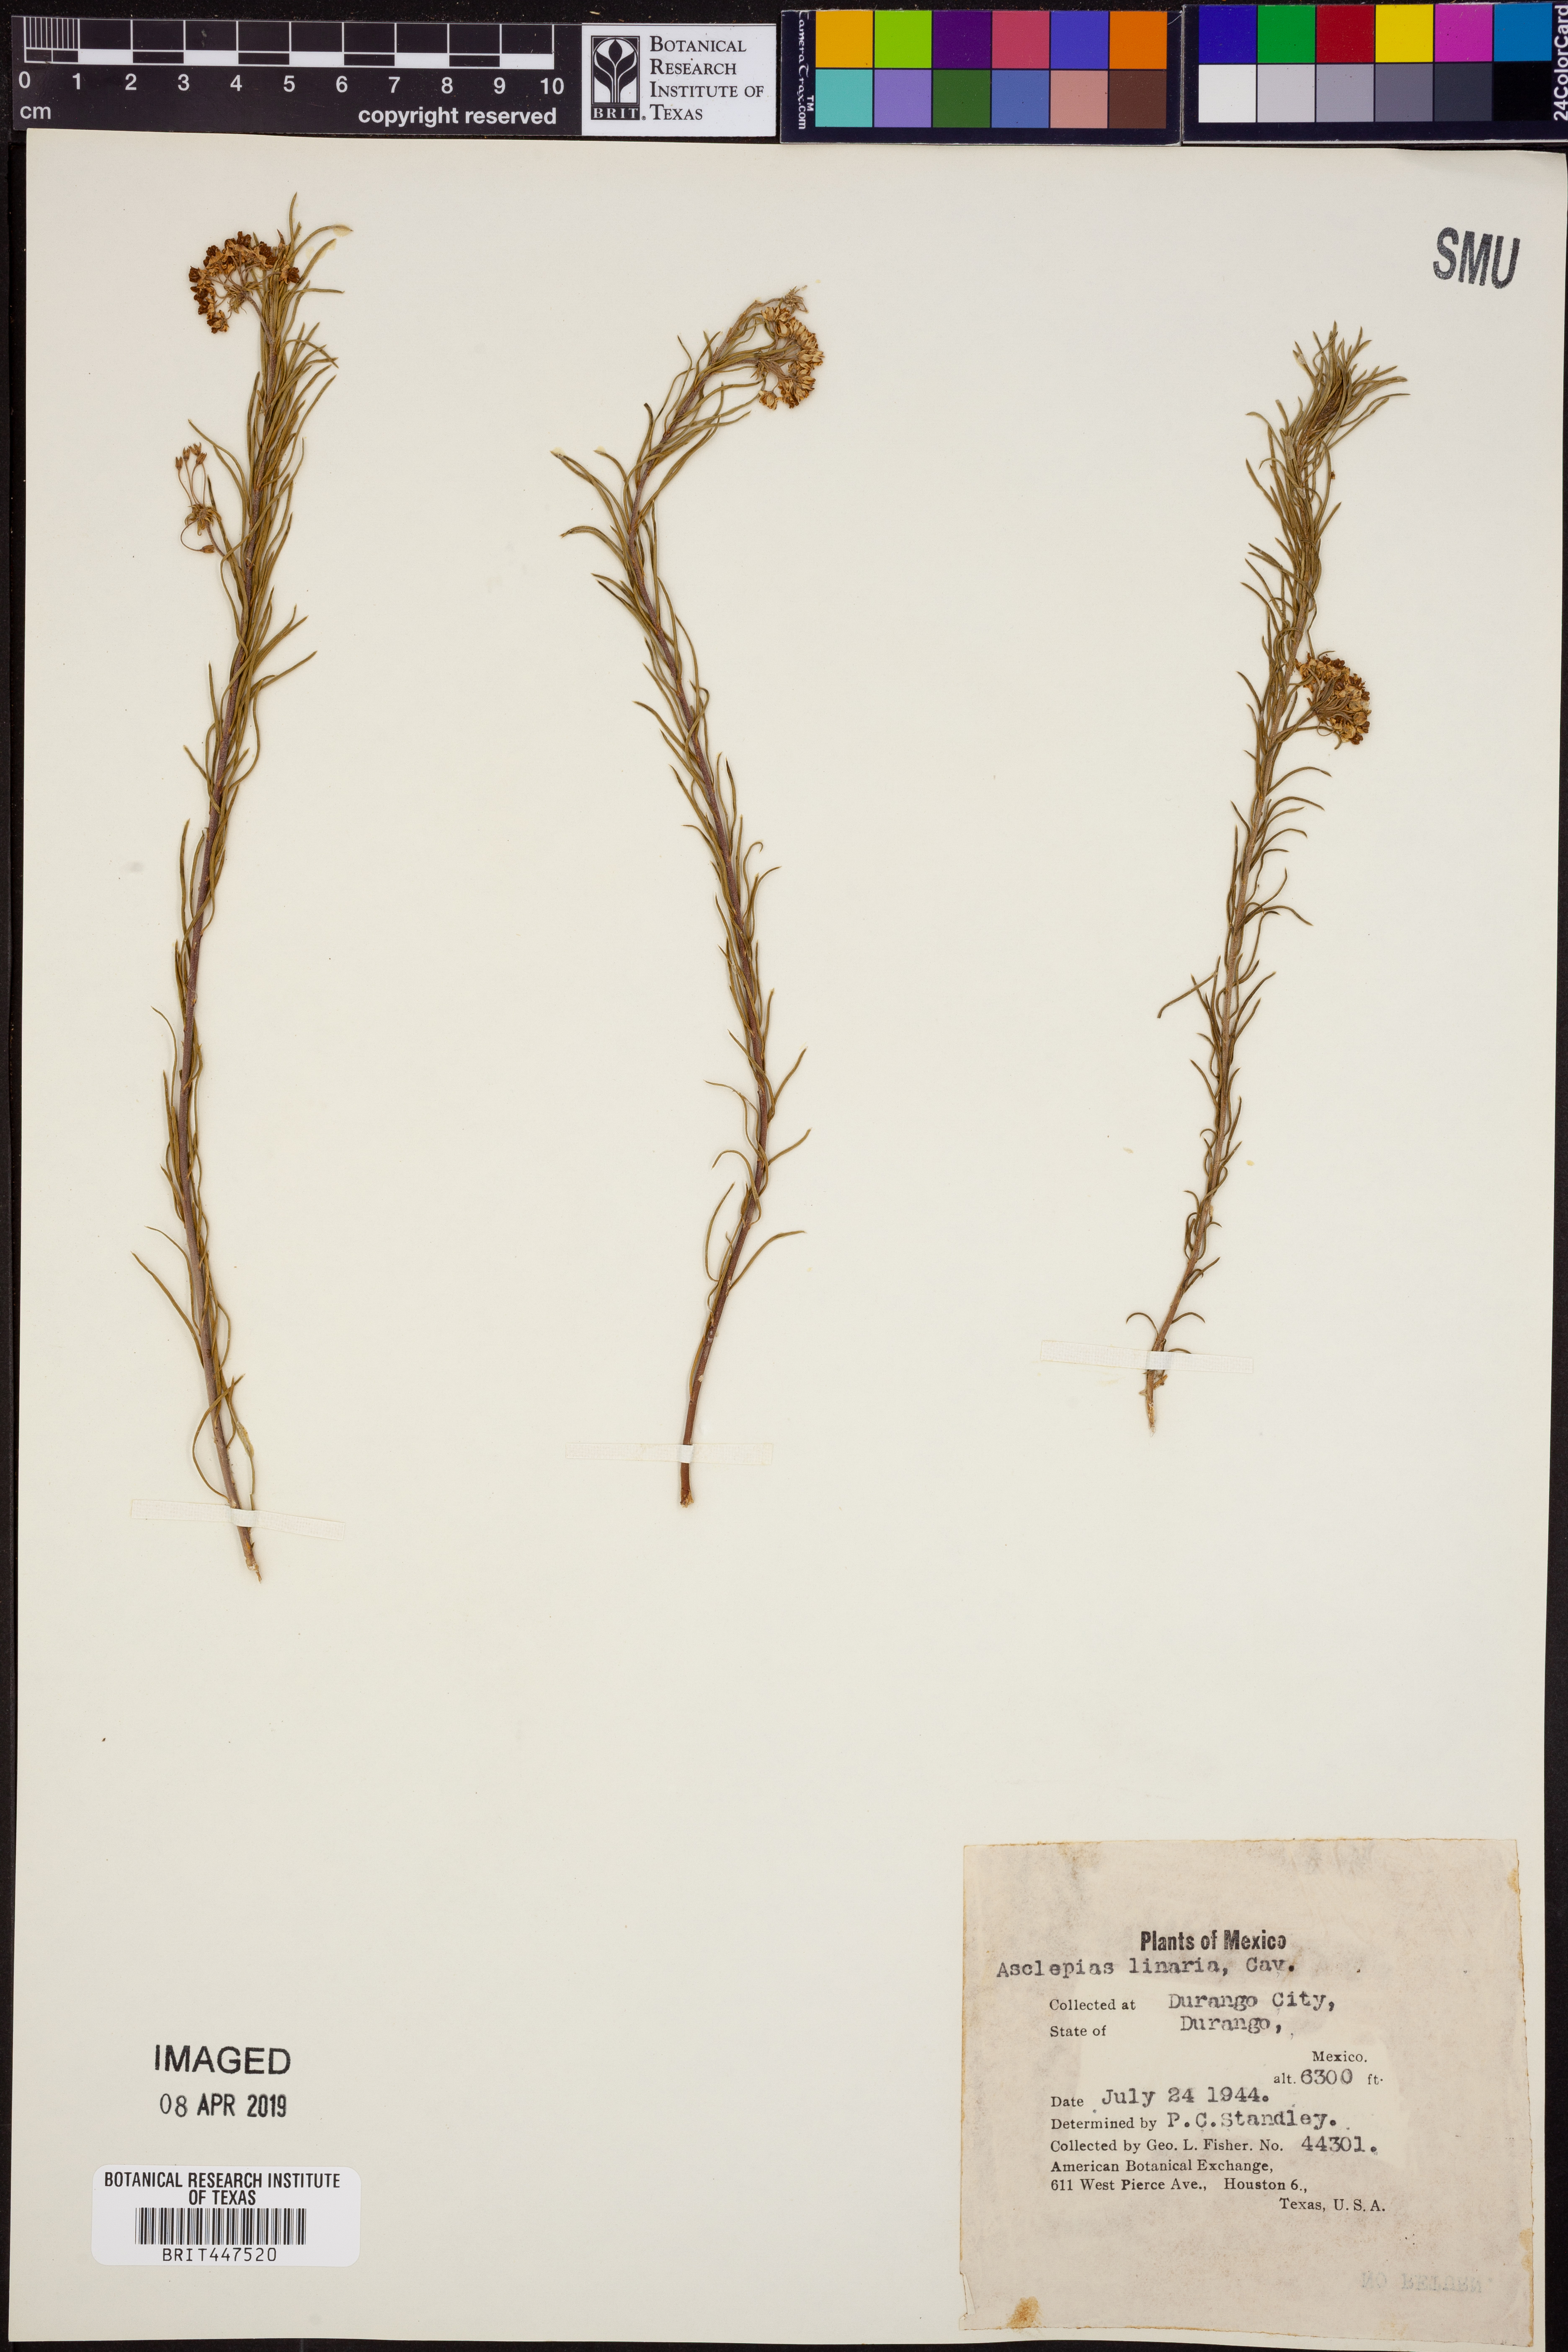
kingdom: Plantae
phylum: Tracheophyta
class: Magnoliopsida
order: Gentianales
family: Apocynaceae
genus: Asclepias
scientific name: Asclepias linaria
